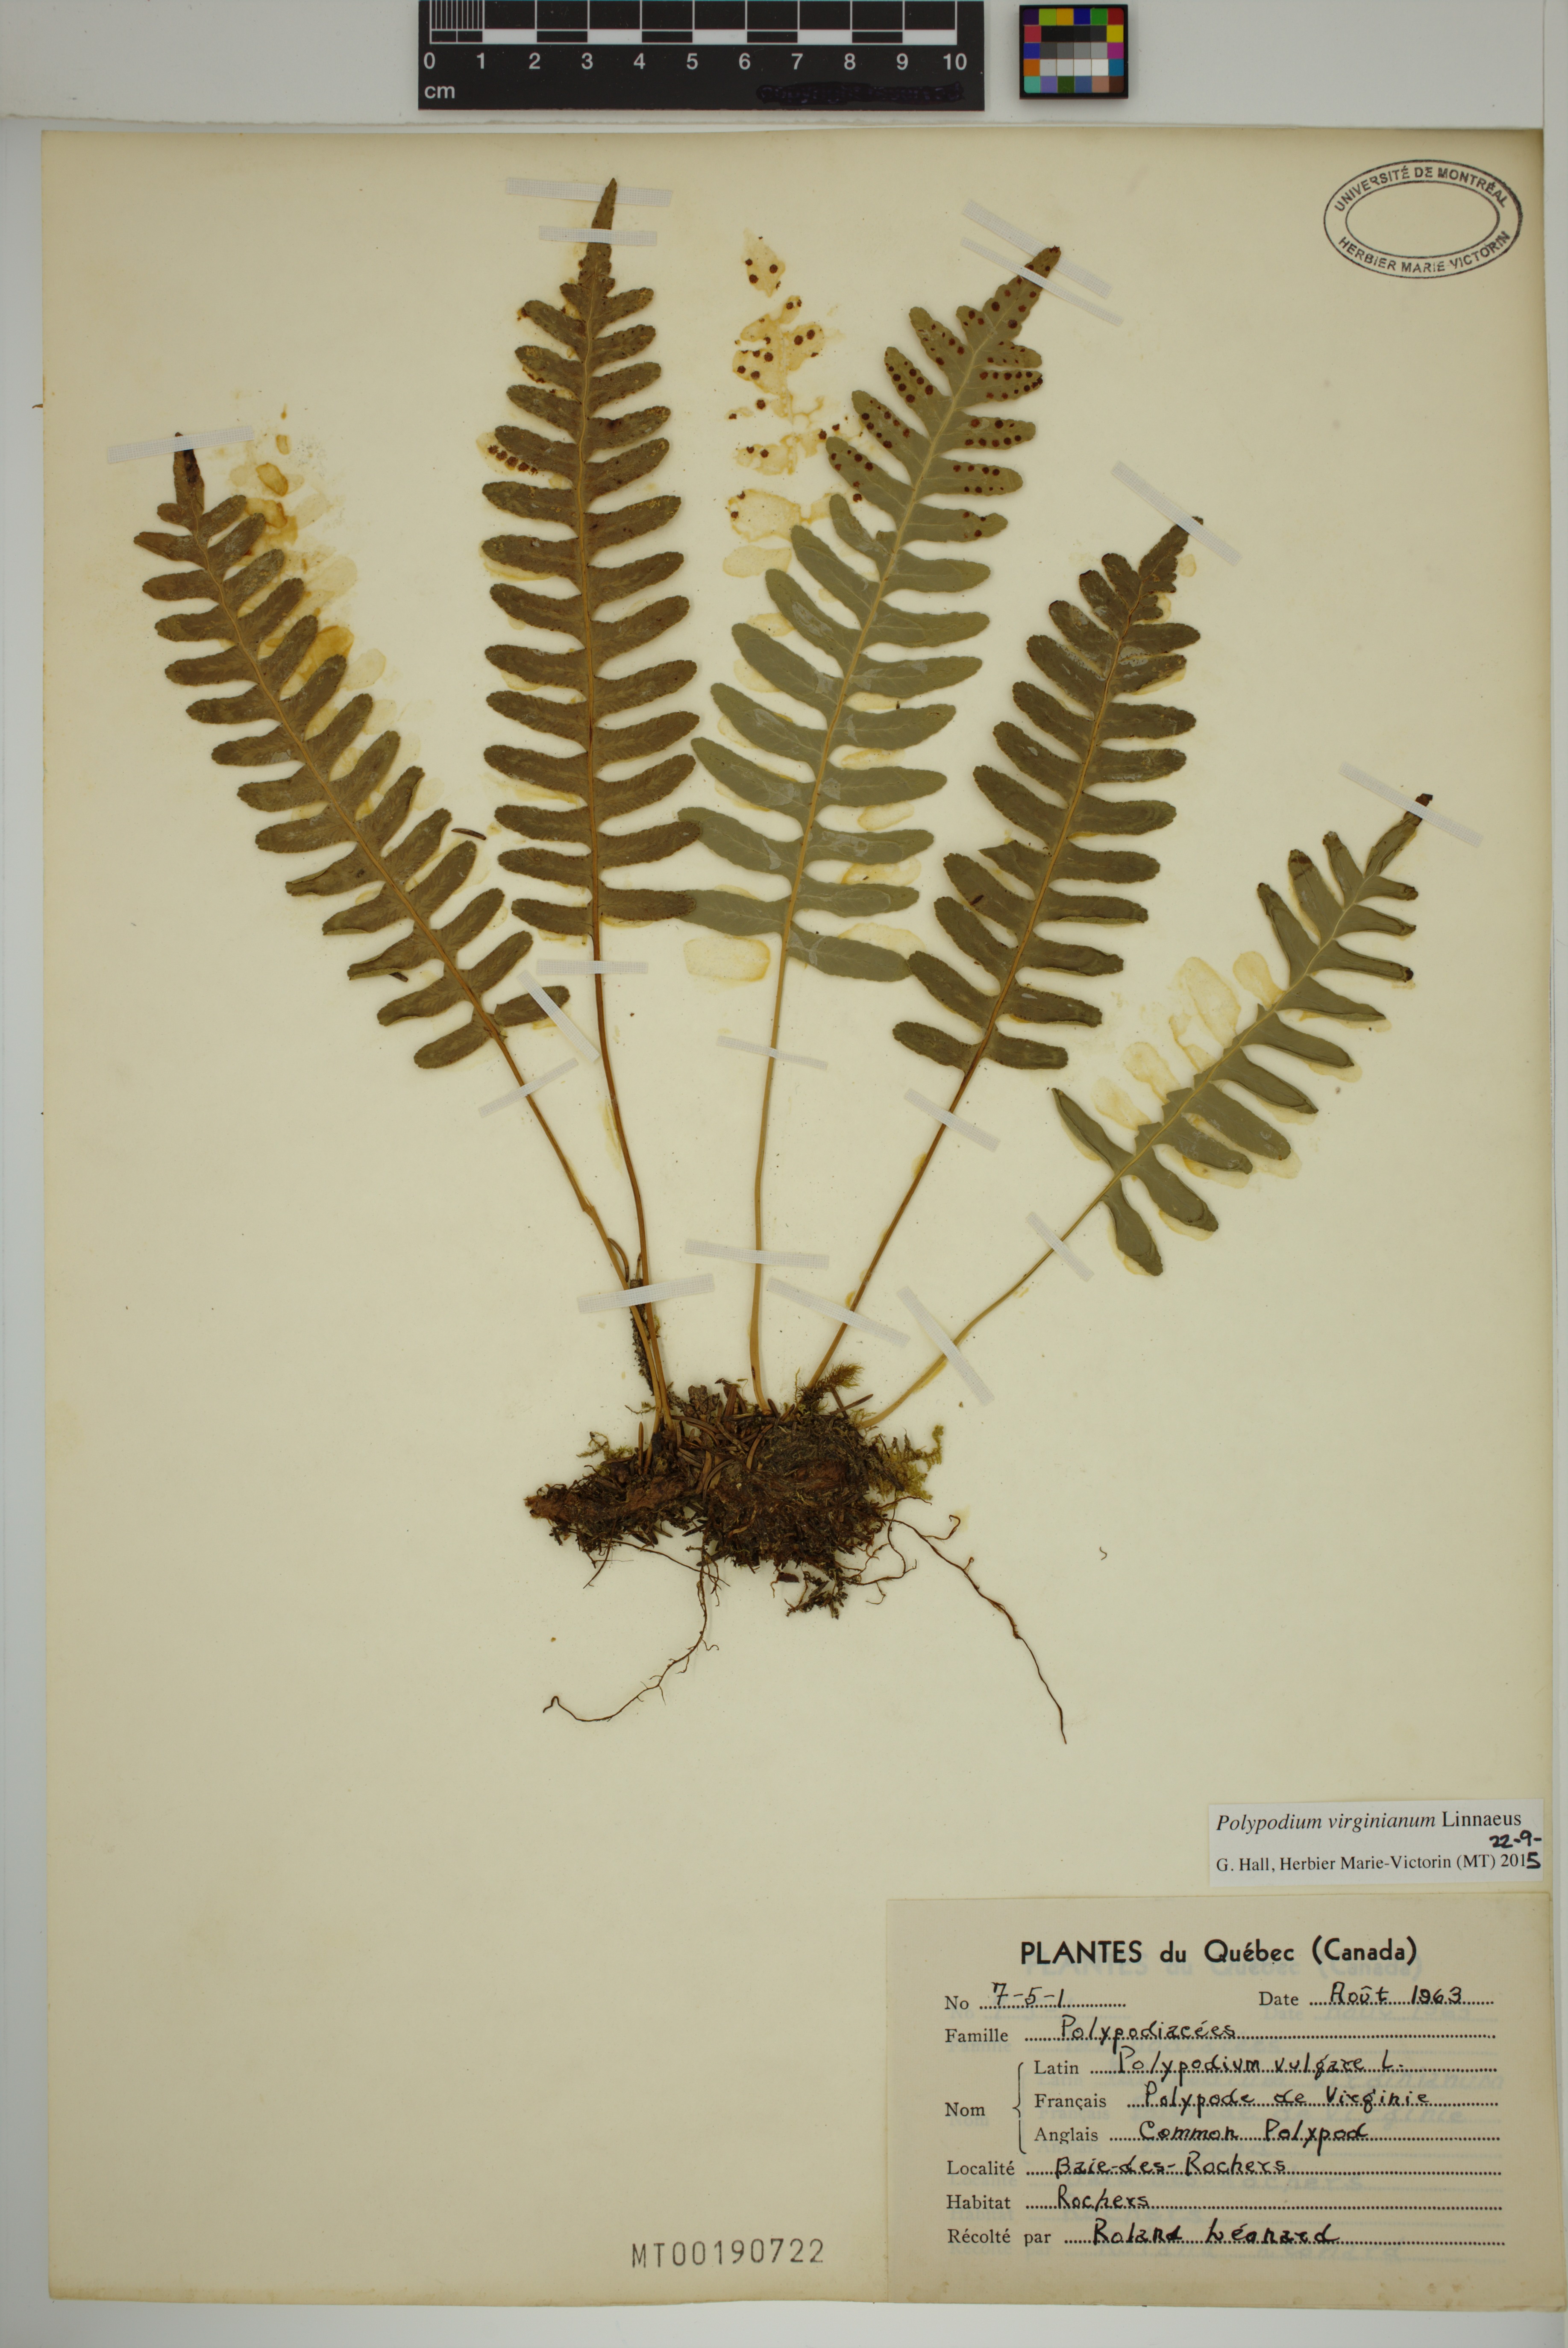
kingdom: Plantae
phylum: Tracheophyta
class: Polypodiopsida
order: Polypodiales
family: Polypodiaceae
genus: Polypodium
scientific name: Polypodium virginianum
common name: American wall fern
